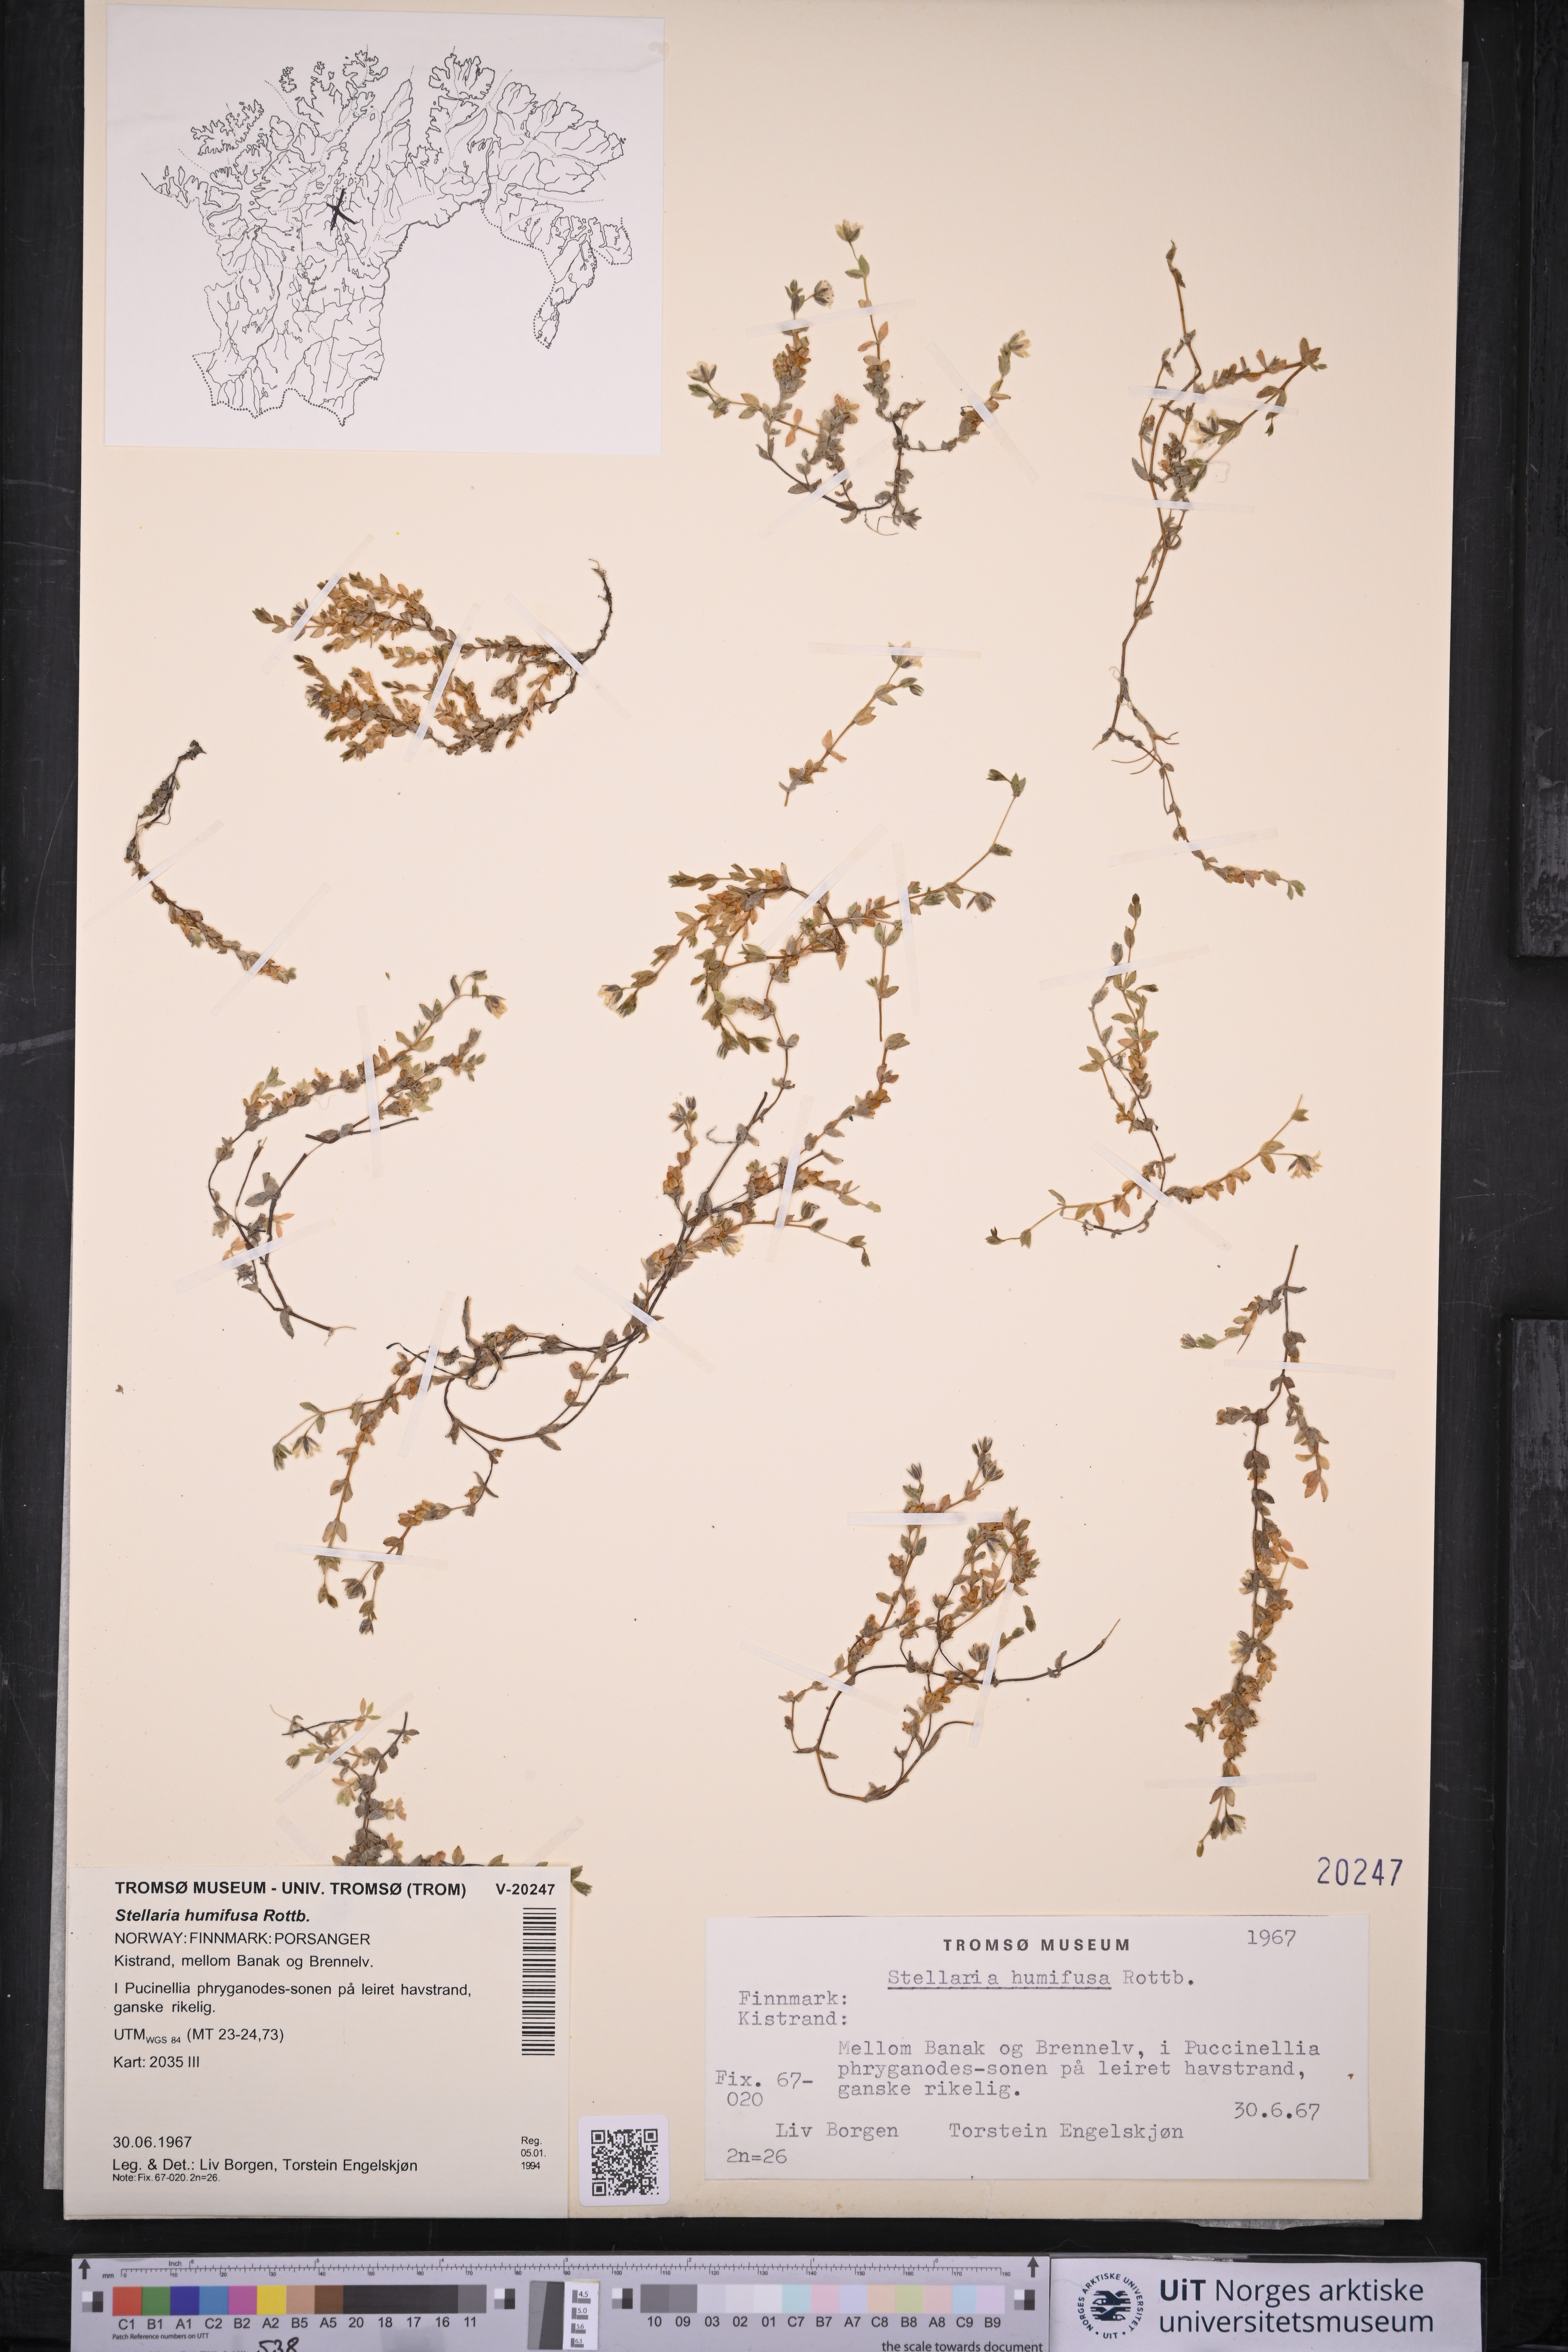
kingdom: Plantae
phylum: Tracheophyta
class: Magnoliopsida
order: Caryophyllales
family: Caryophyllaceae
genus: Stellaria
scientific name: Stellaria humifusa
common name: Creeping starwort
